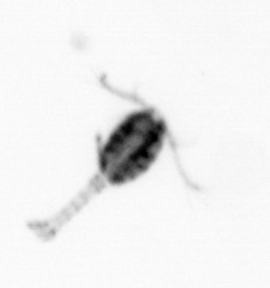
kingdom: Animalia
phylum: Arthropoda
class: Copepoda
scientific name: Copepoda
